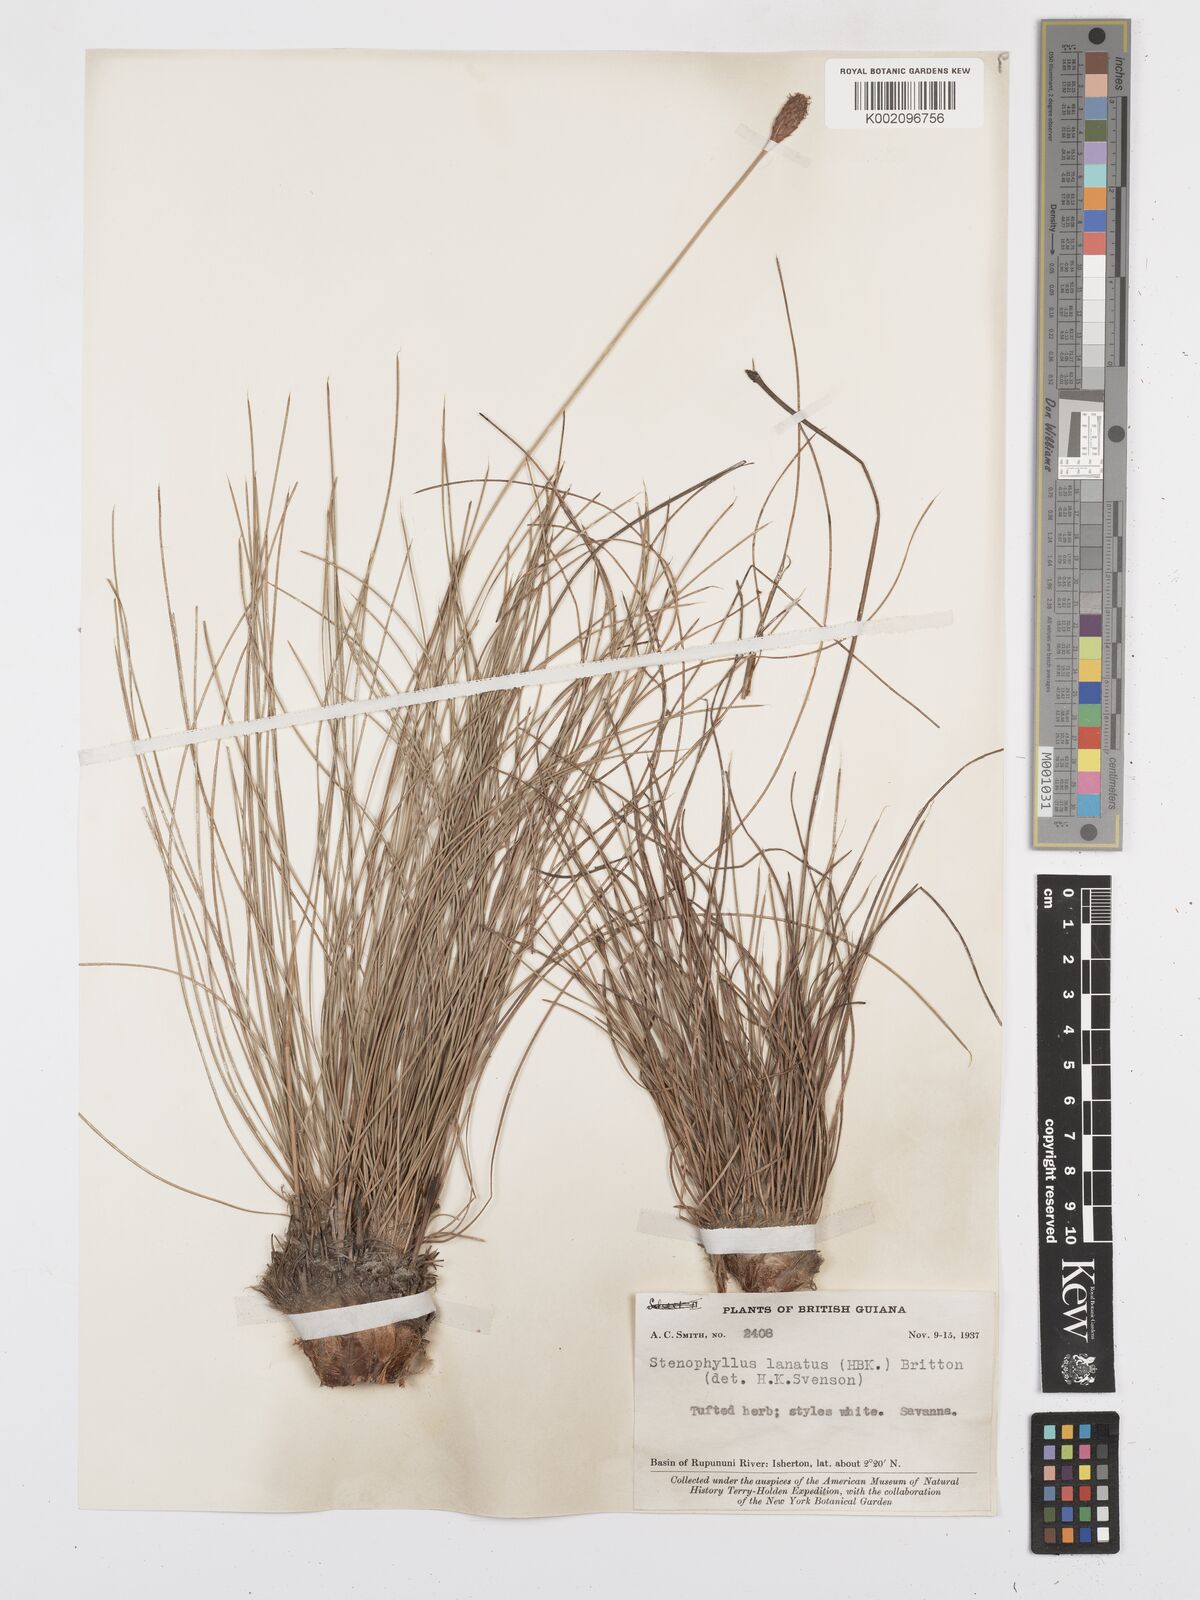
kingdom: Plantae
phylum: Tracheophyta
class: Liliopsida
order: Poales
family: Cyperaceae
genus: Bulbostylis
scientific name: Bulbostylis
